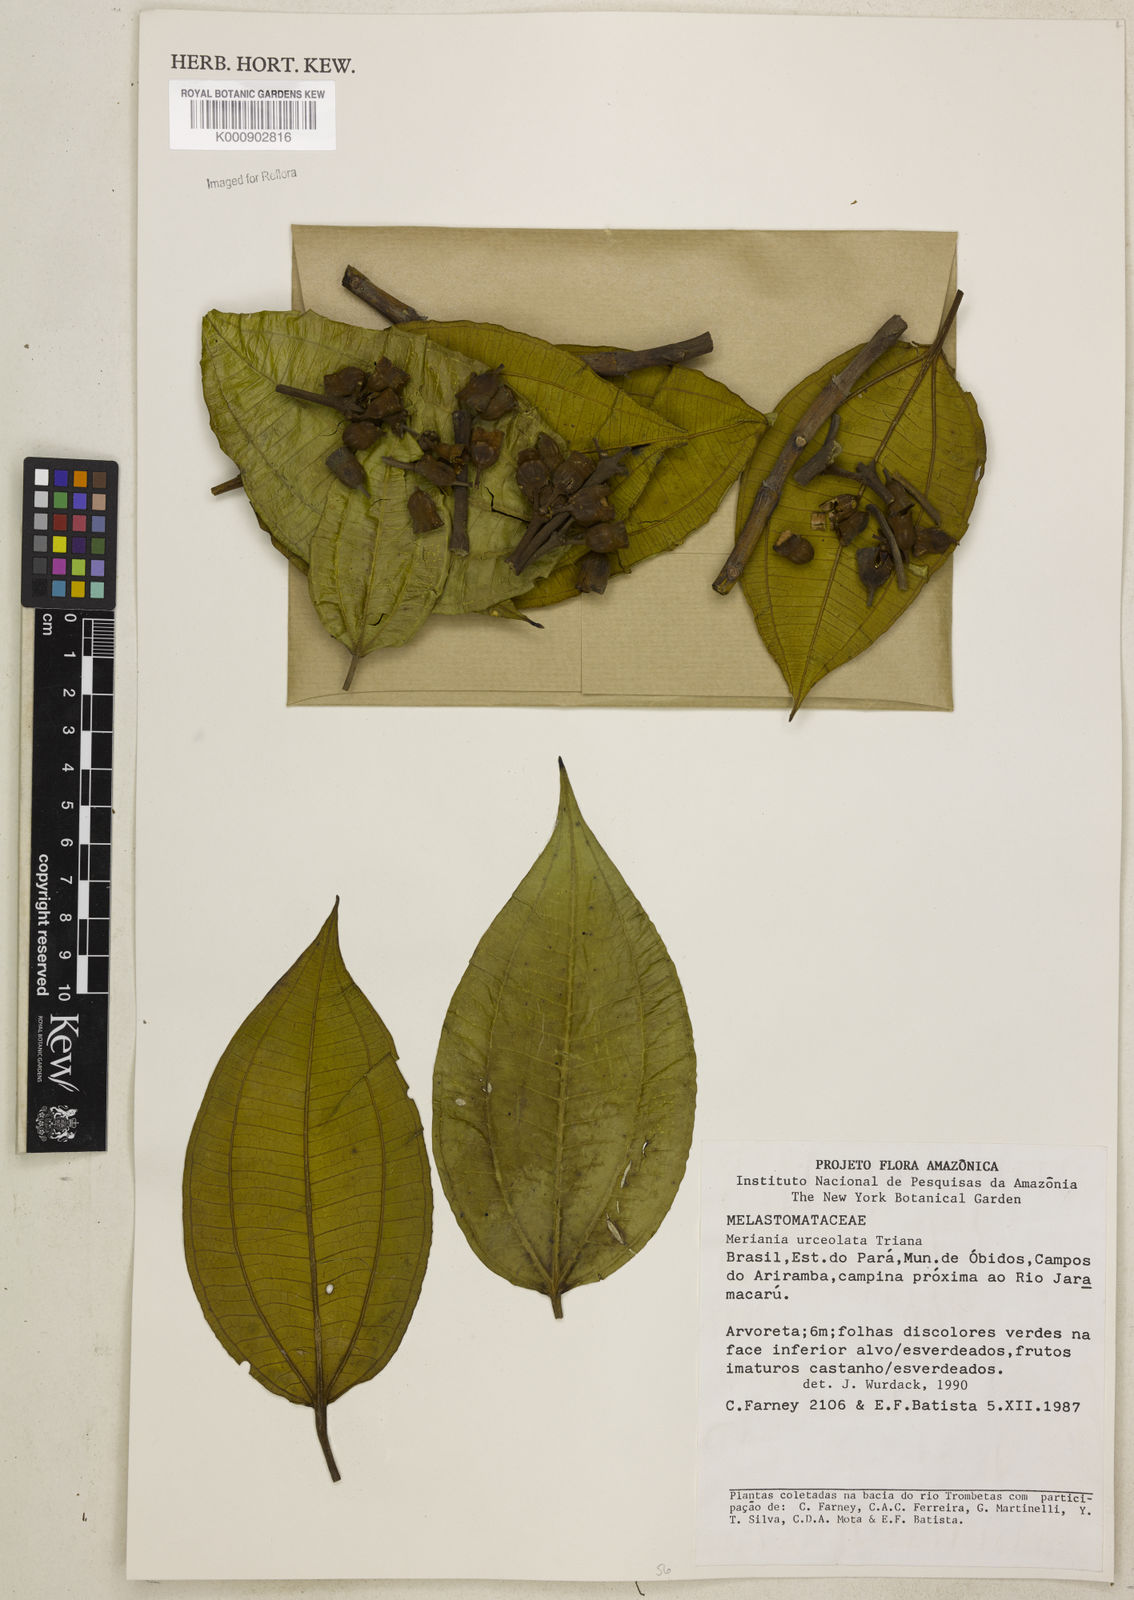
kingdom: Plantae
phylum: Tracheophyta
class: Magnoliopsida
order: Myrtales
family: Melastomataceae
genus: Meriania
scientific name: Meriania urceolata
